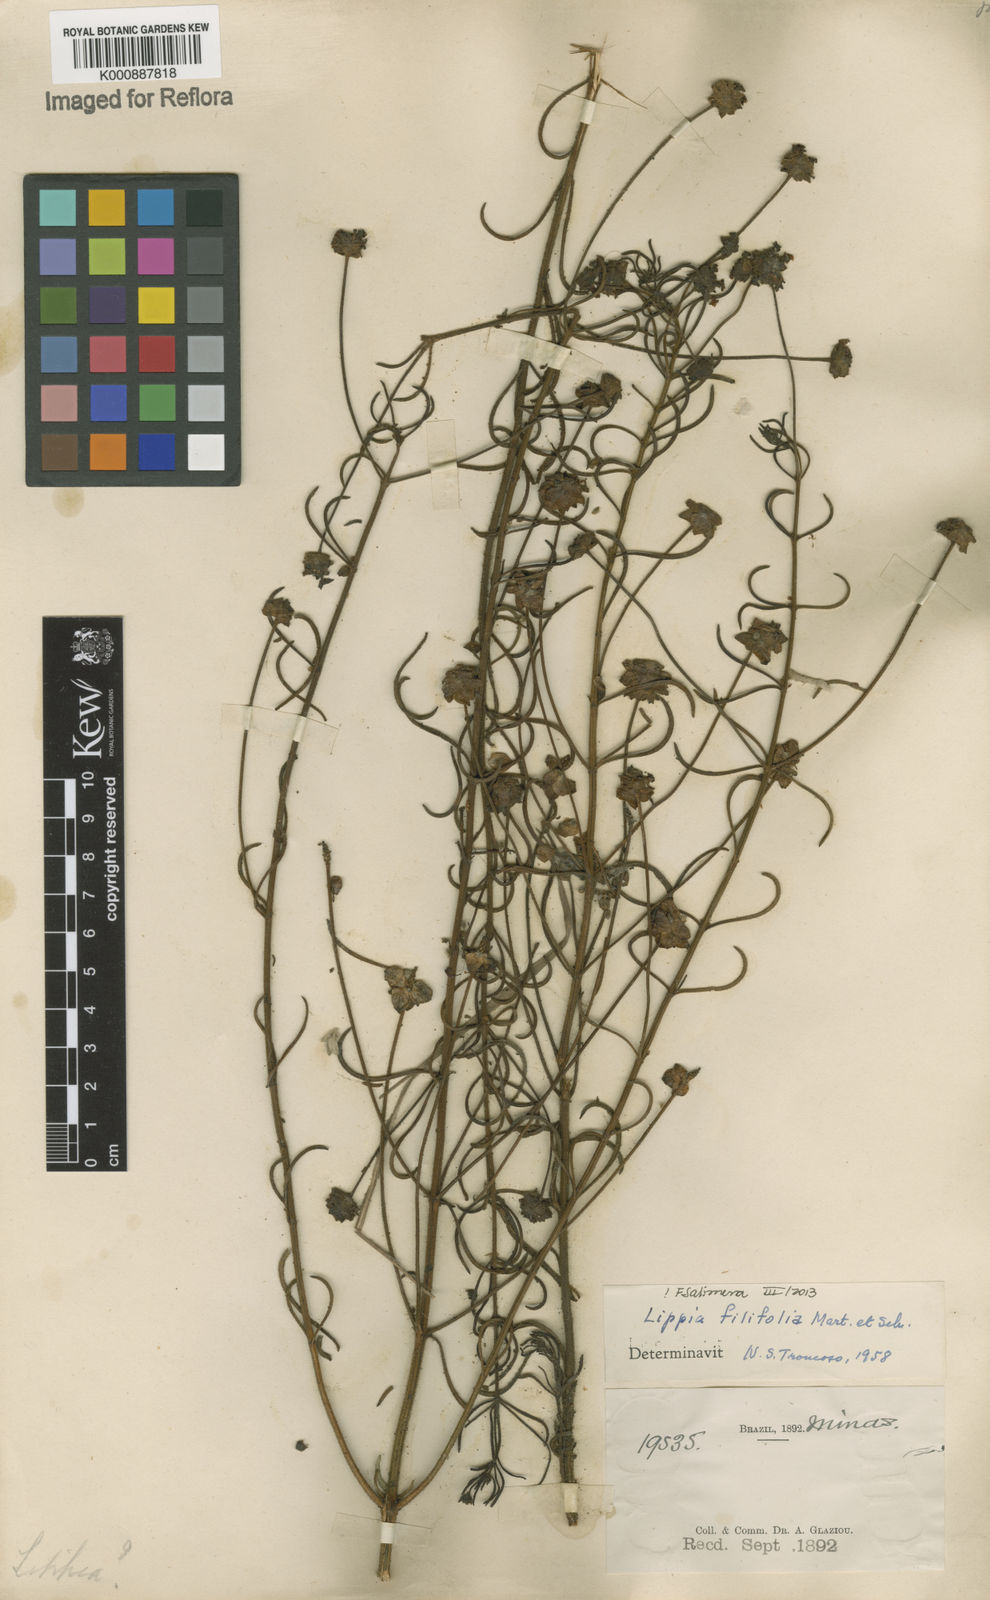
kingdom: Plantae
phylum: Tracheophyta
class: Magnoliopsida
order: Lamiales
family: Verbenaceae
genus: Lippia
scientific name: Lippia filifolia
